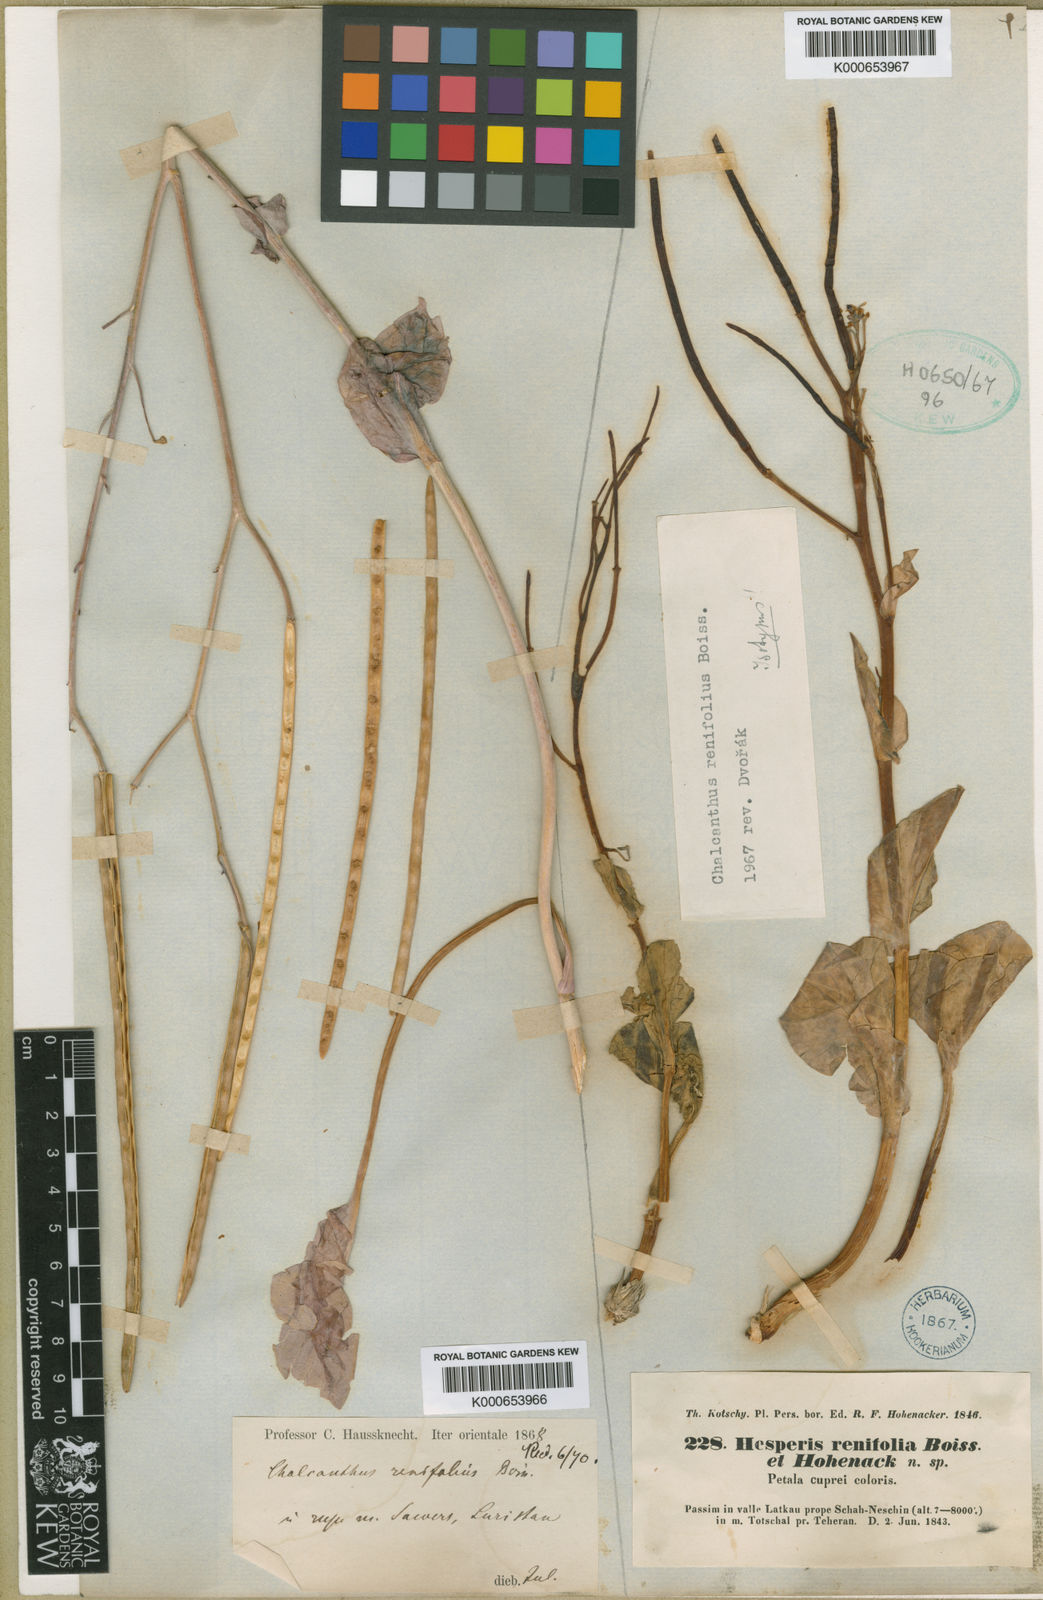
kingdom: Plantae
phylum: Tracheophyta
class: Magnoliopsida
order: Brassicales
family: Brassicaceae
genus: Eutrema
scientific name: Eutrema renifolium
